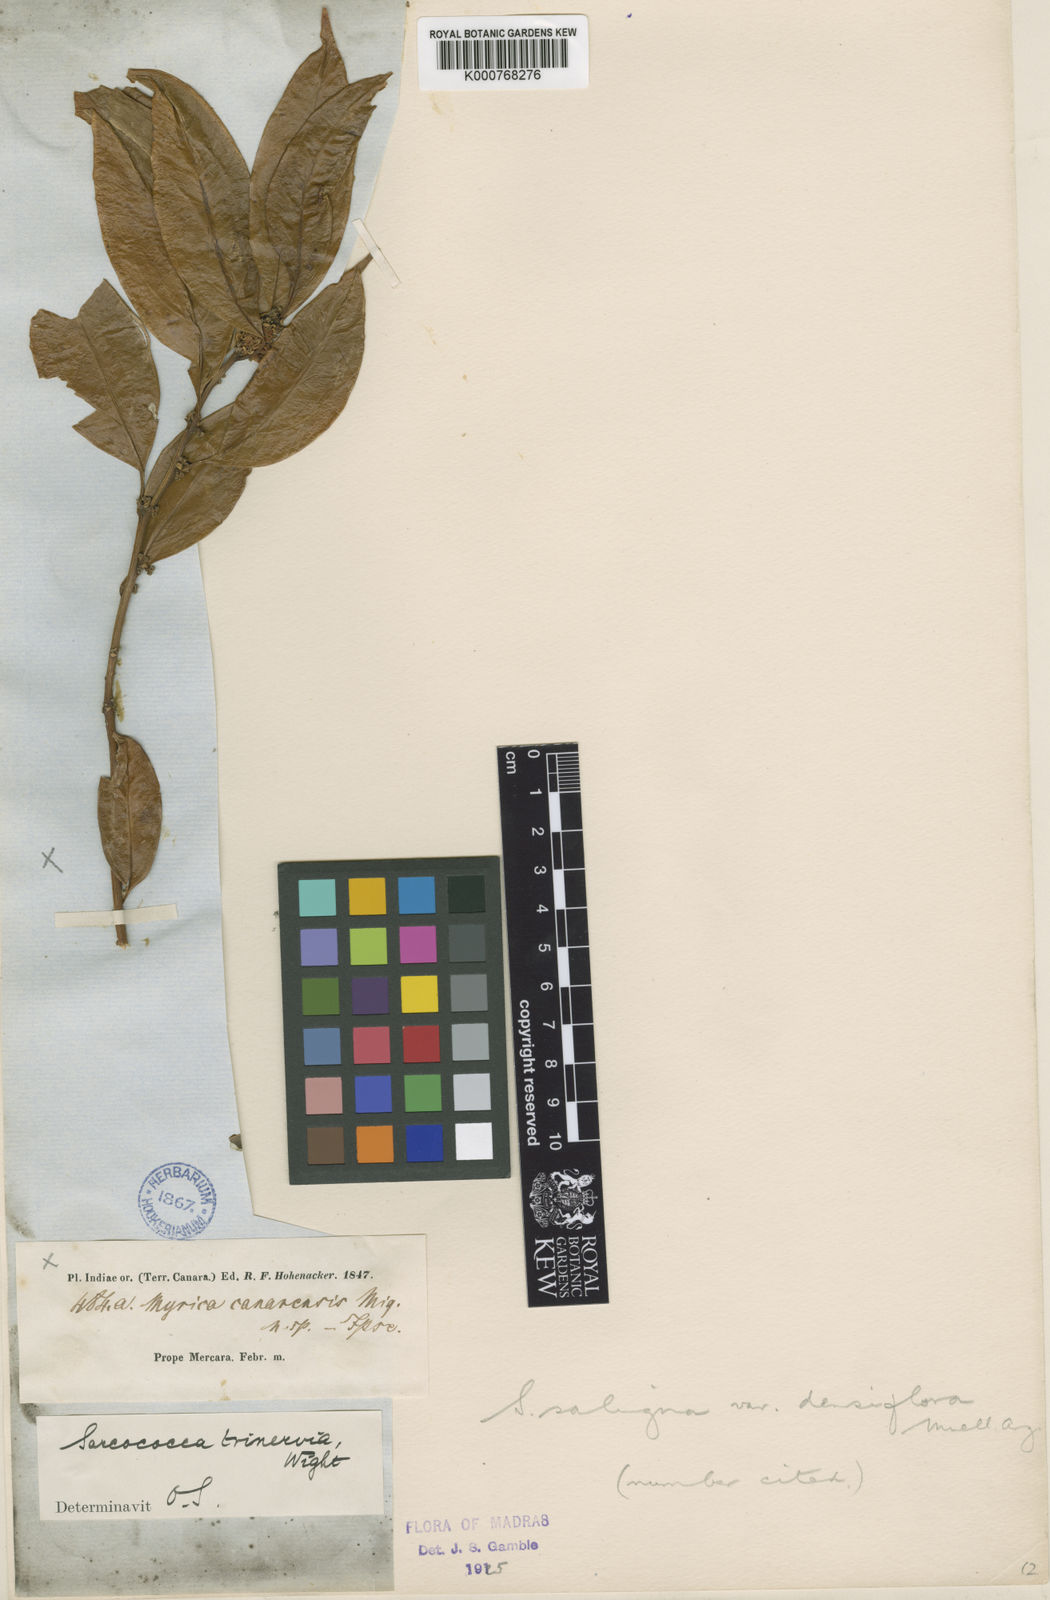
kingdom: Plantae
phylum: Tracheophyta
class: Magnoliopsida
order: Buxales
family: Buxaceae
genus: Sarcococca
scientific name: Sarcococca coriacea
